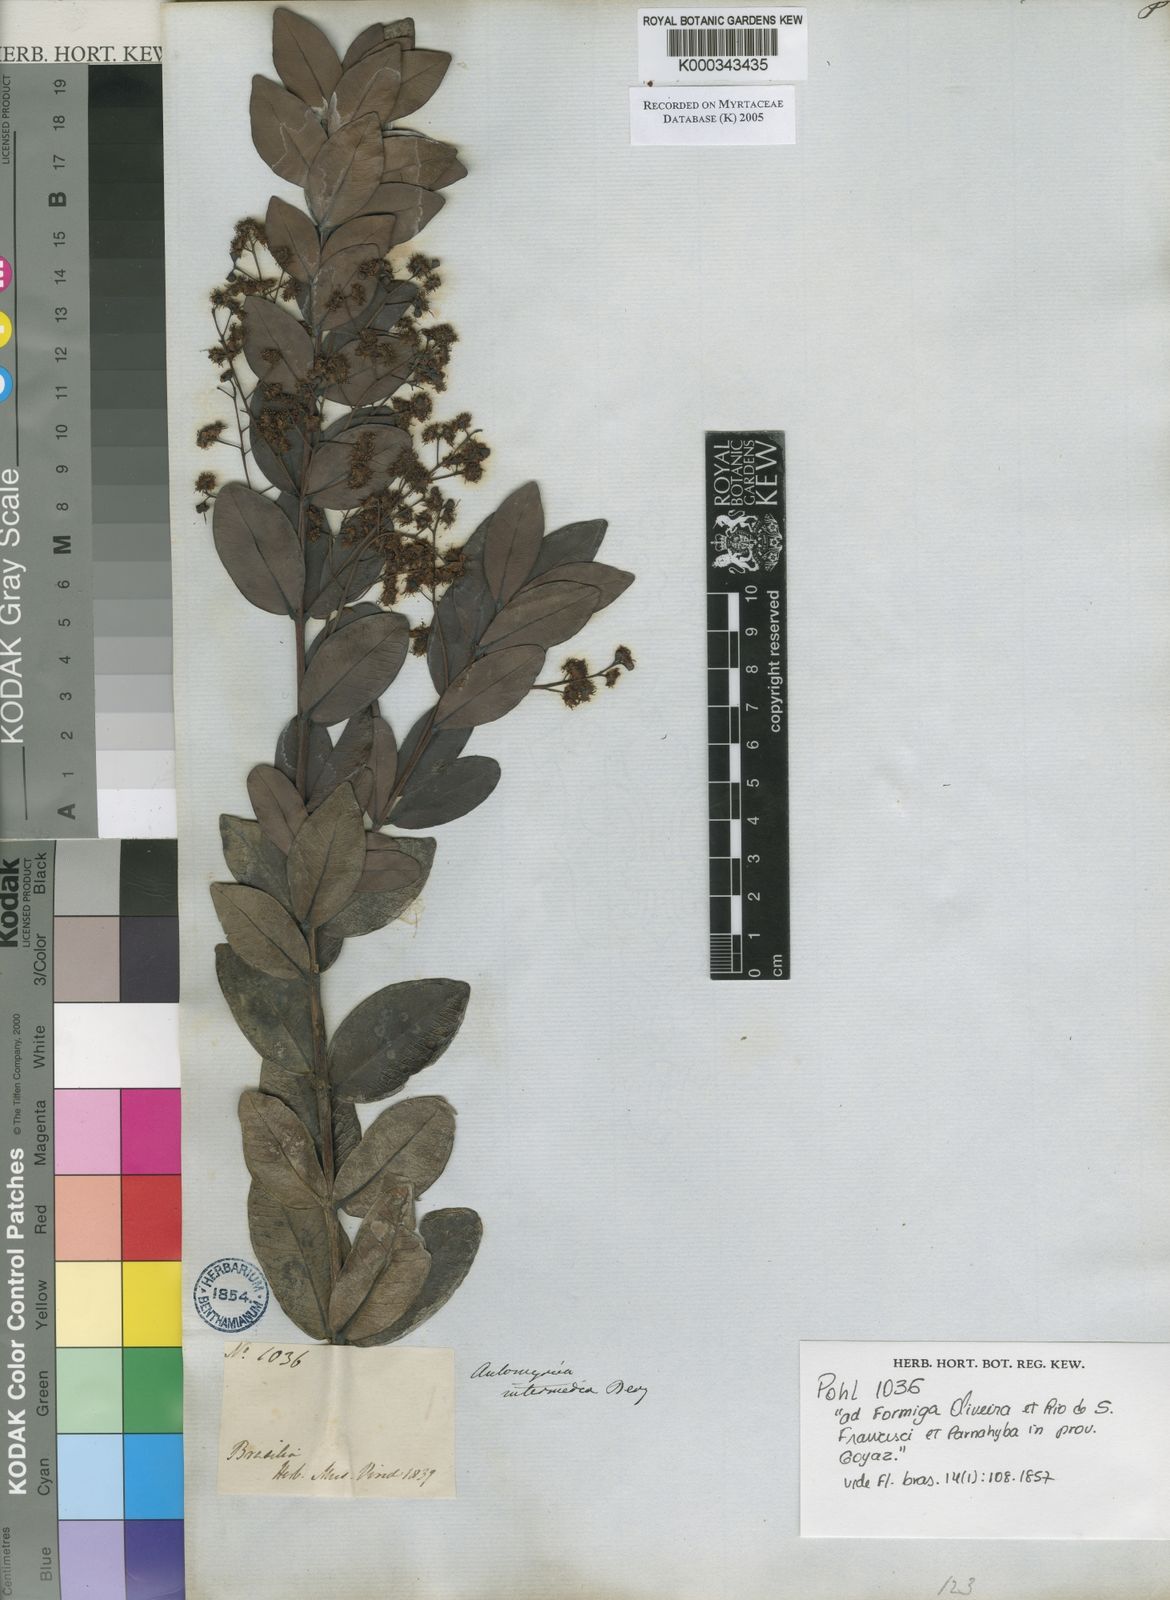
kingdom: Plantae
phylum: Tracheophyta
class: Magnoliopsida
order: Myrtales
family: Myrtaceae
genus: Myrcia
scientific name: Myrcia guianensis
